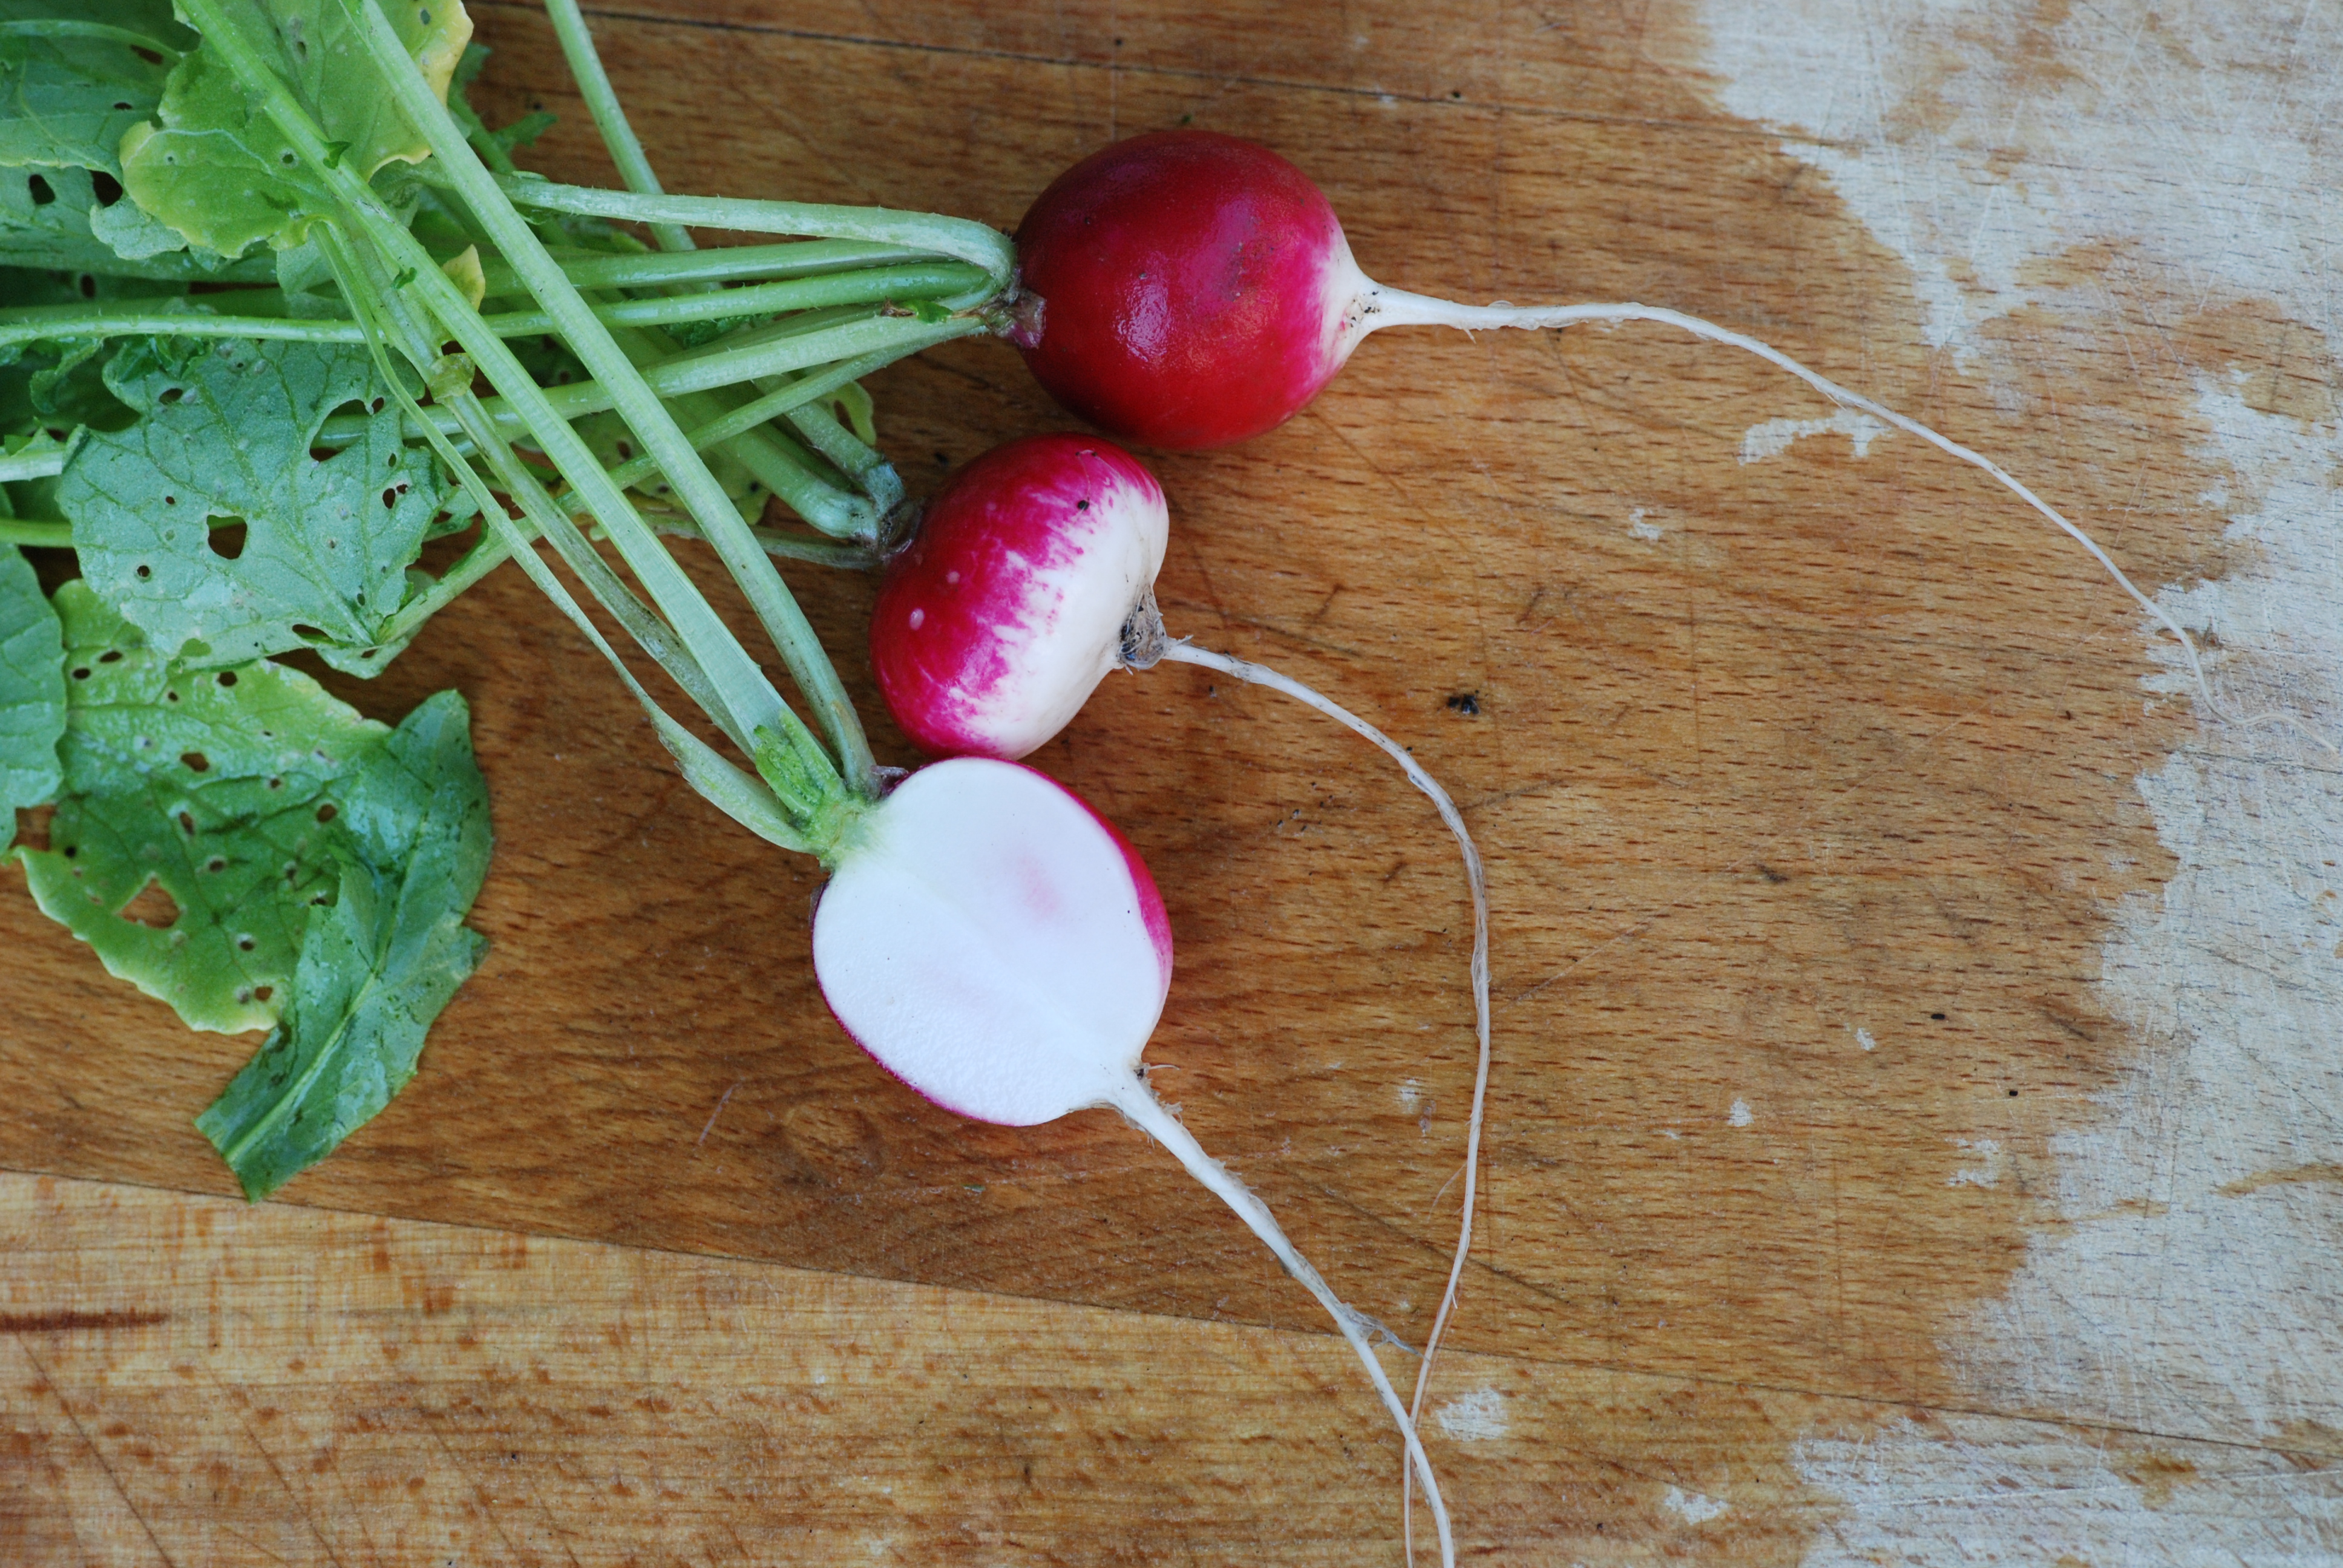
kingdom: Plantae
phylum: Tracheophyta
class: Magnoliopsida
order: Brassicales
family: Brassicaceae
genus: Raphanus
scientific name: Raphanus sativus
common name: Cultivated radish
